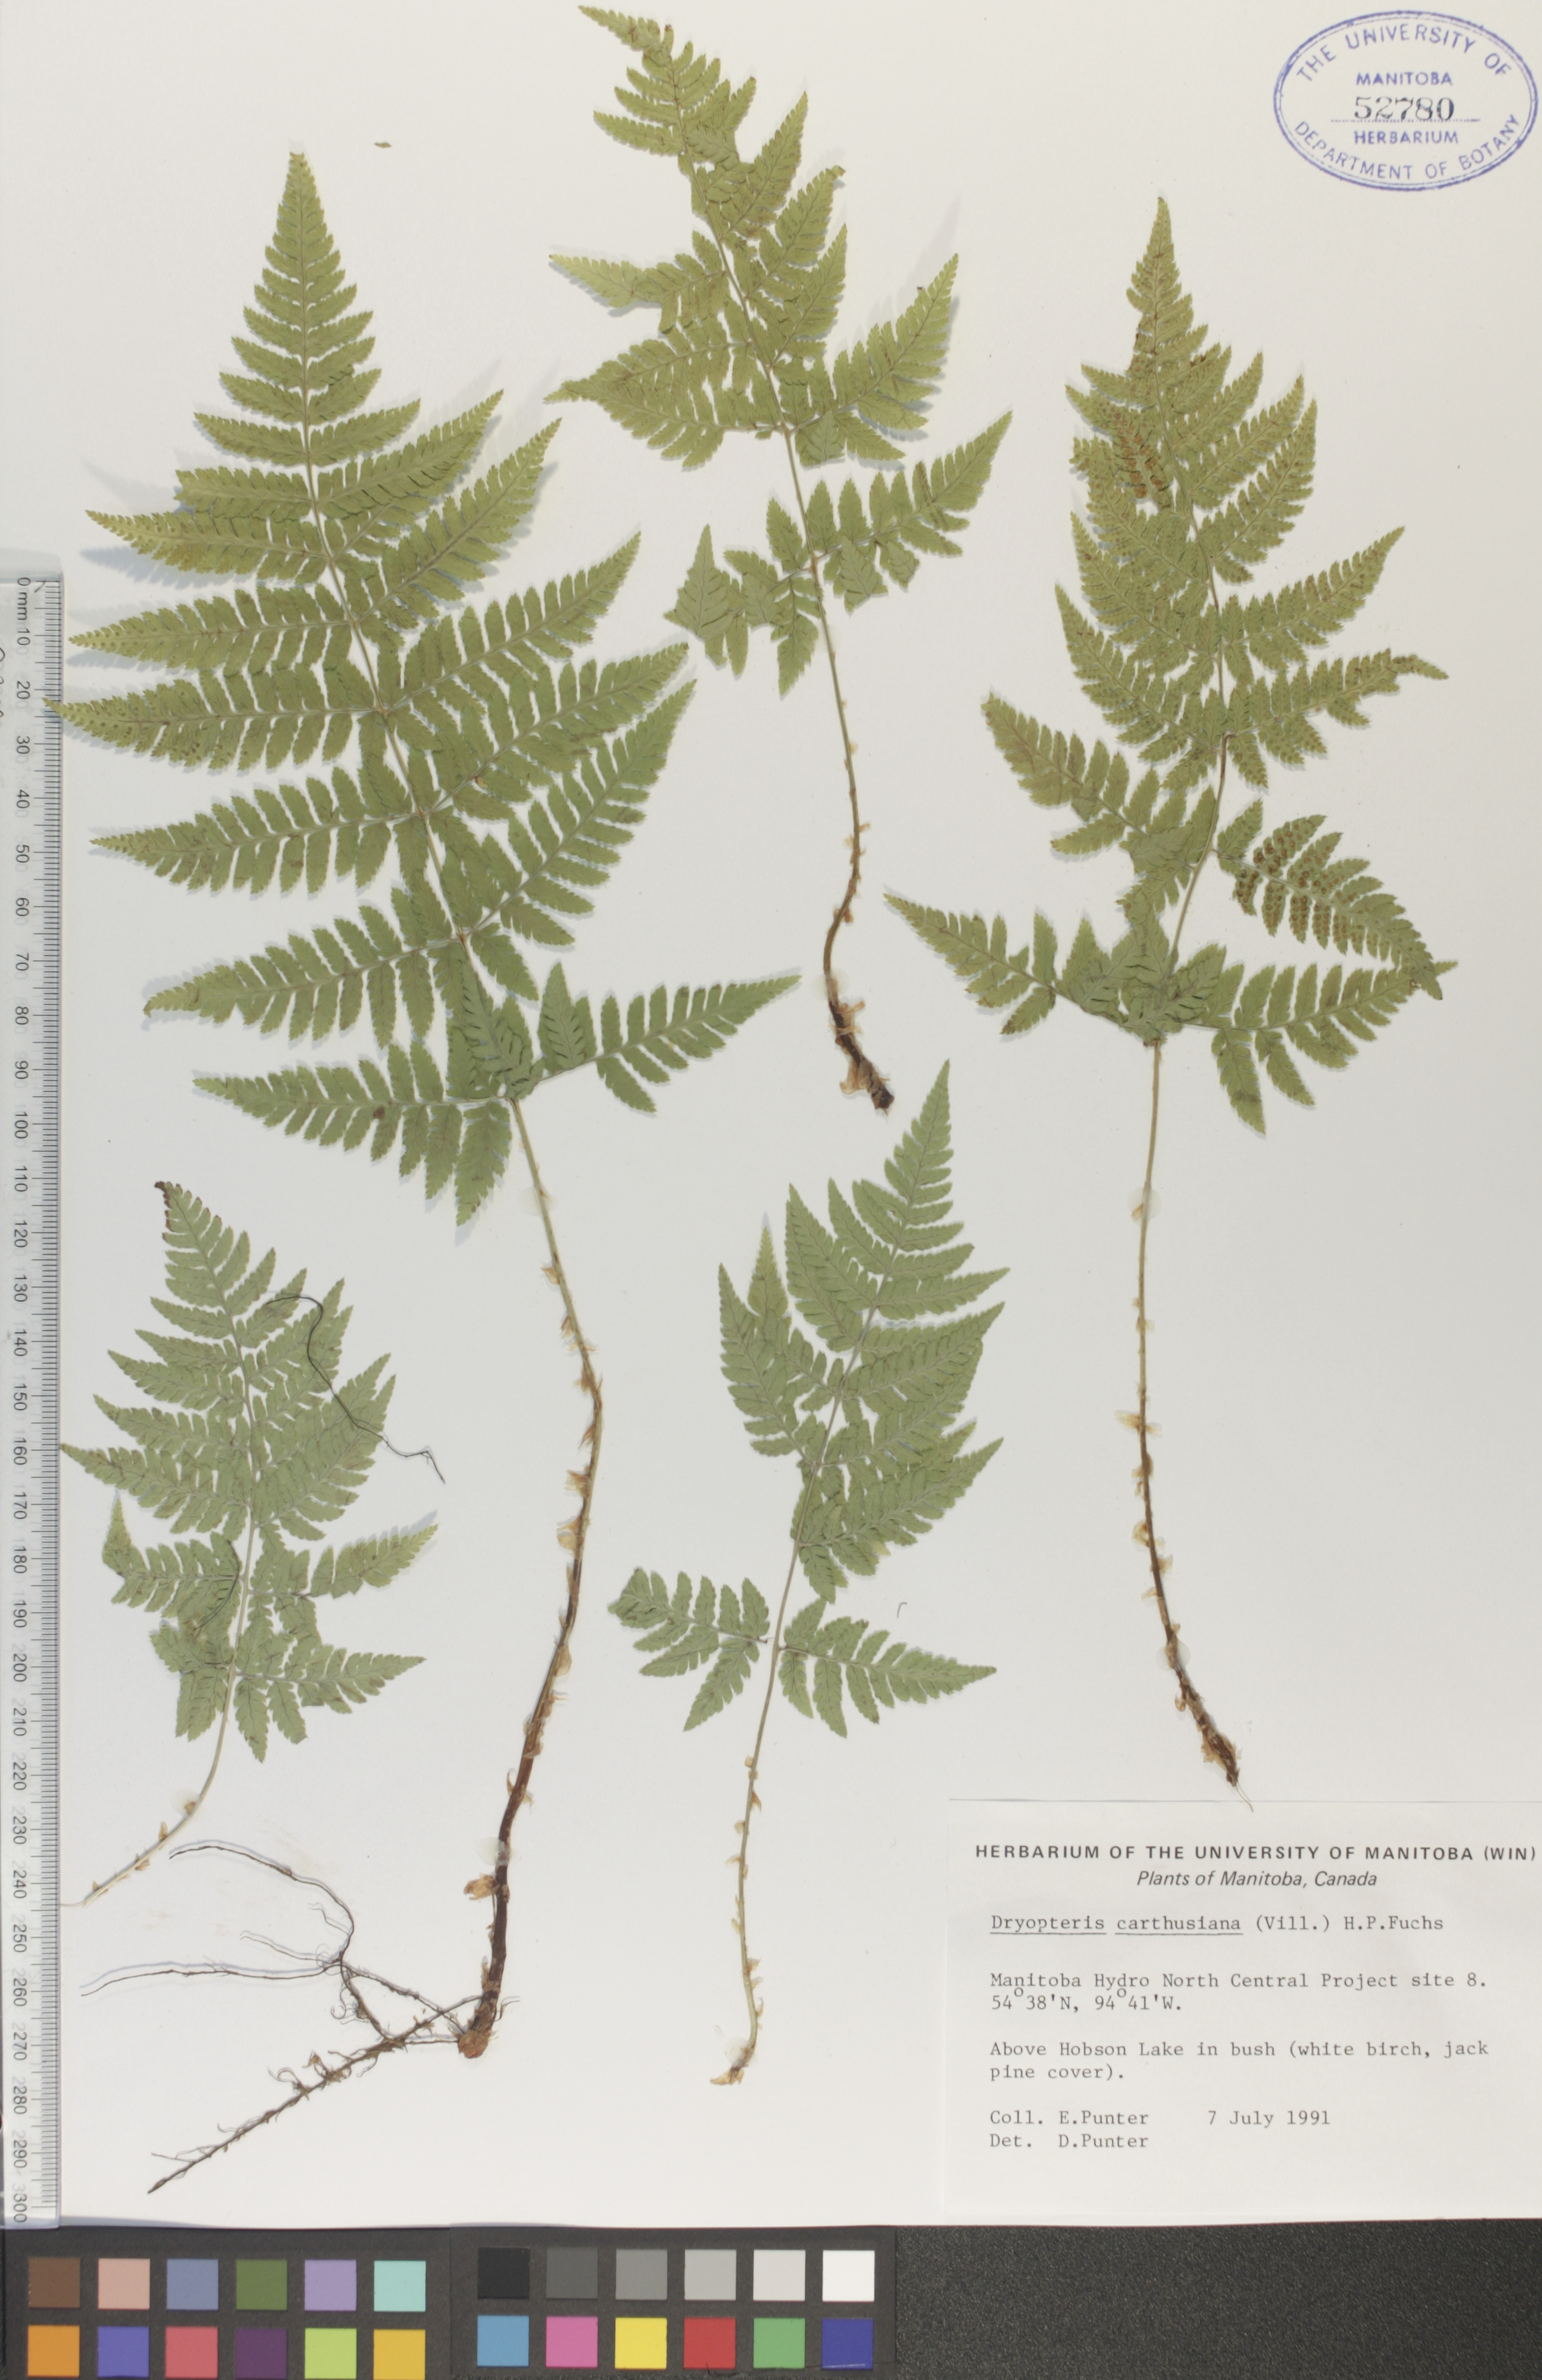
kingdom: Plantae
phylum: Tracheophyta
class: Polypodiopsida
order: Polypodiales
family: Dryopteridaceae
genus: Dryopteris
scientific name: Dryopteris carthusiana
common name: Narrow buckler-fern
